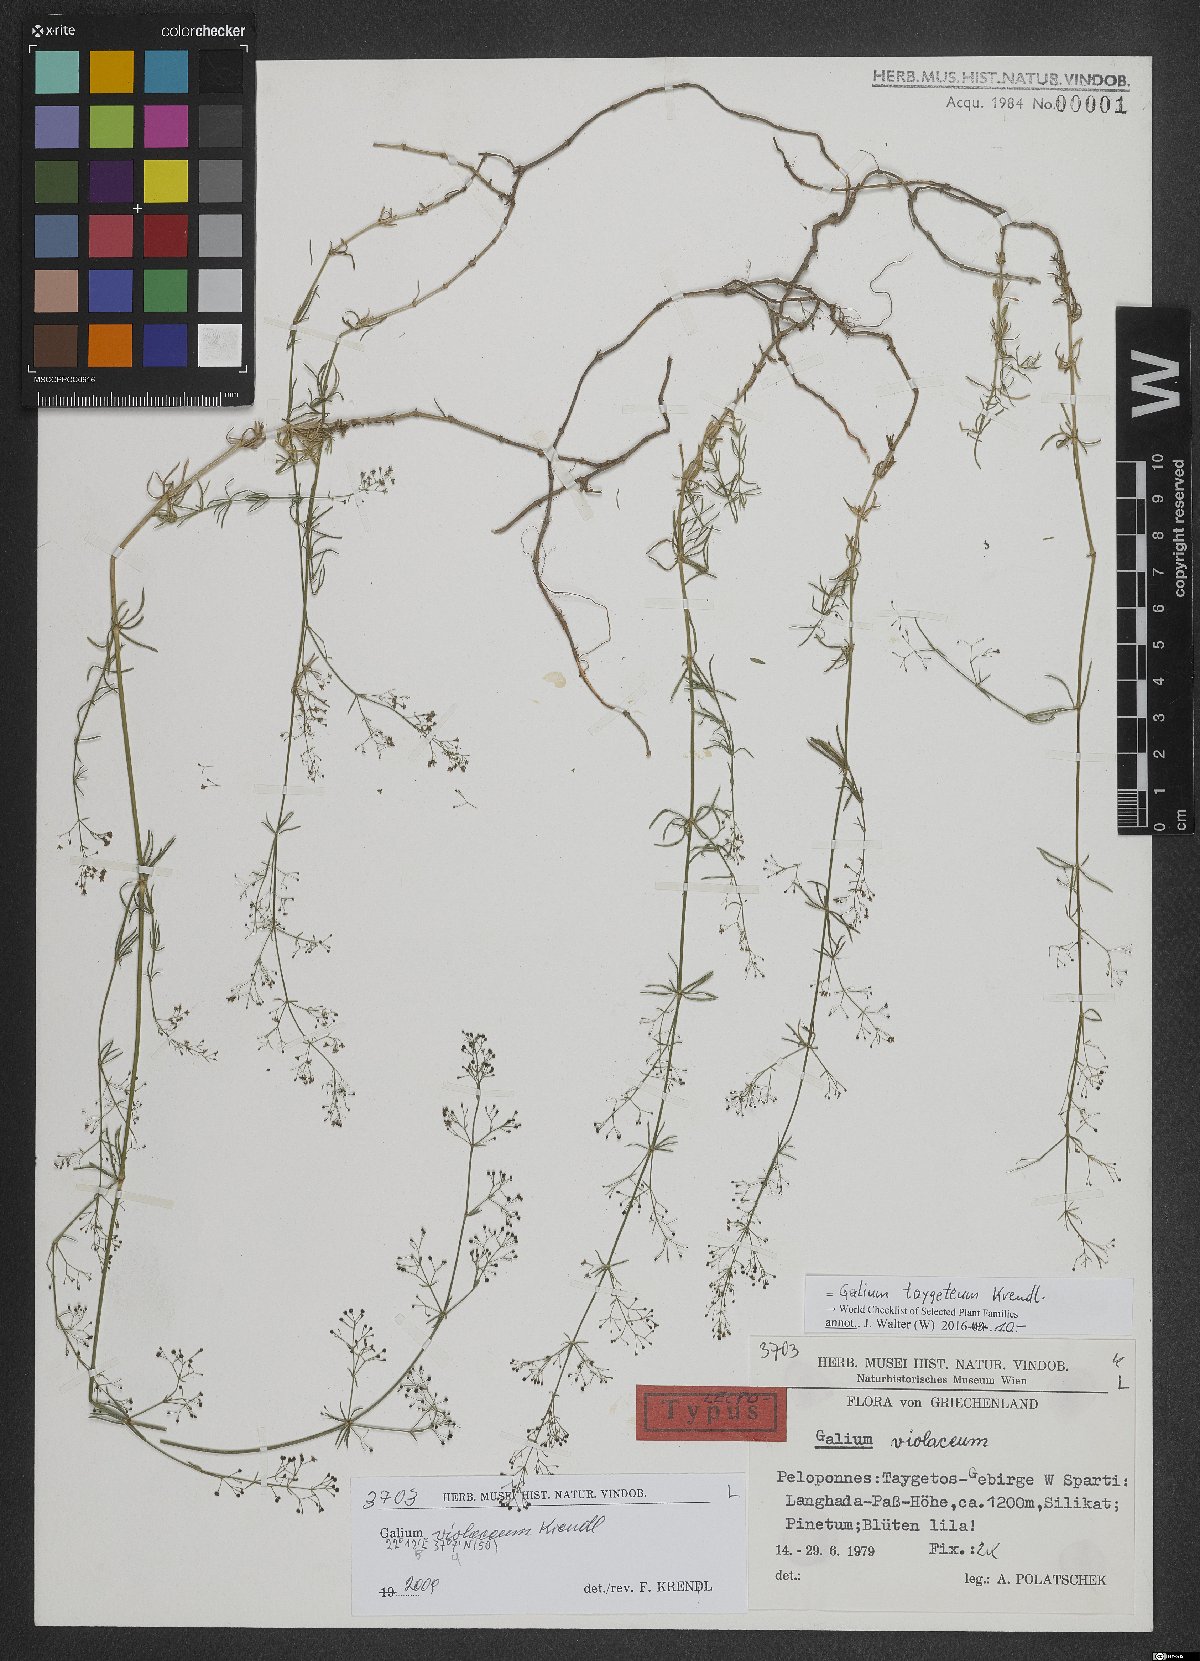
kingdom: Plantae
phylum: Tracheophyta
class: Magnoliopsida
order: Gentianales
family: Rubiaceae
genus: Galium
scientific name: Galium taygeteum
